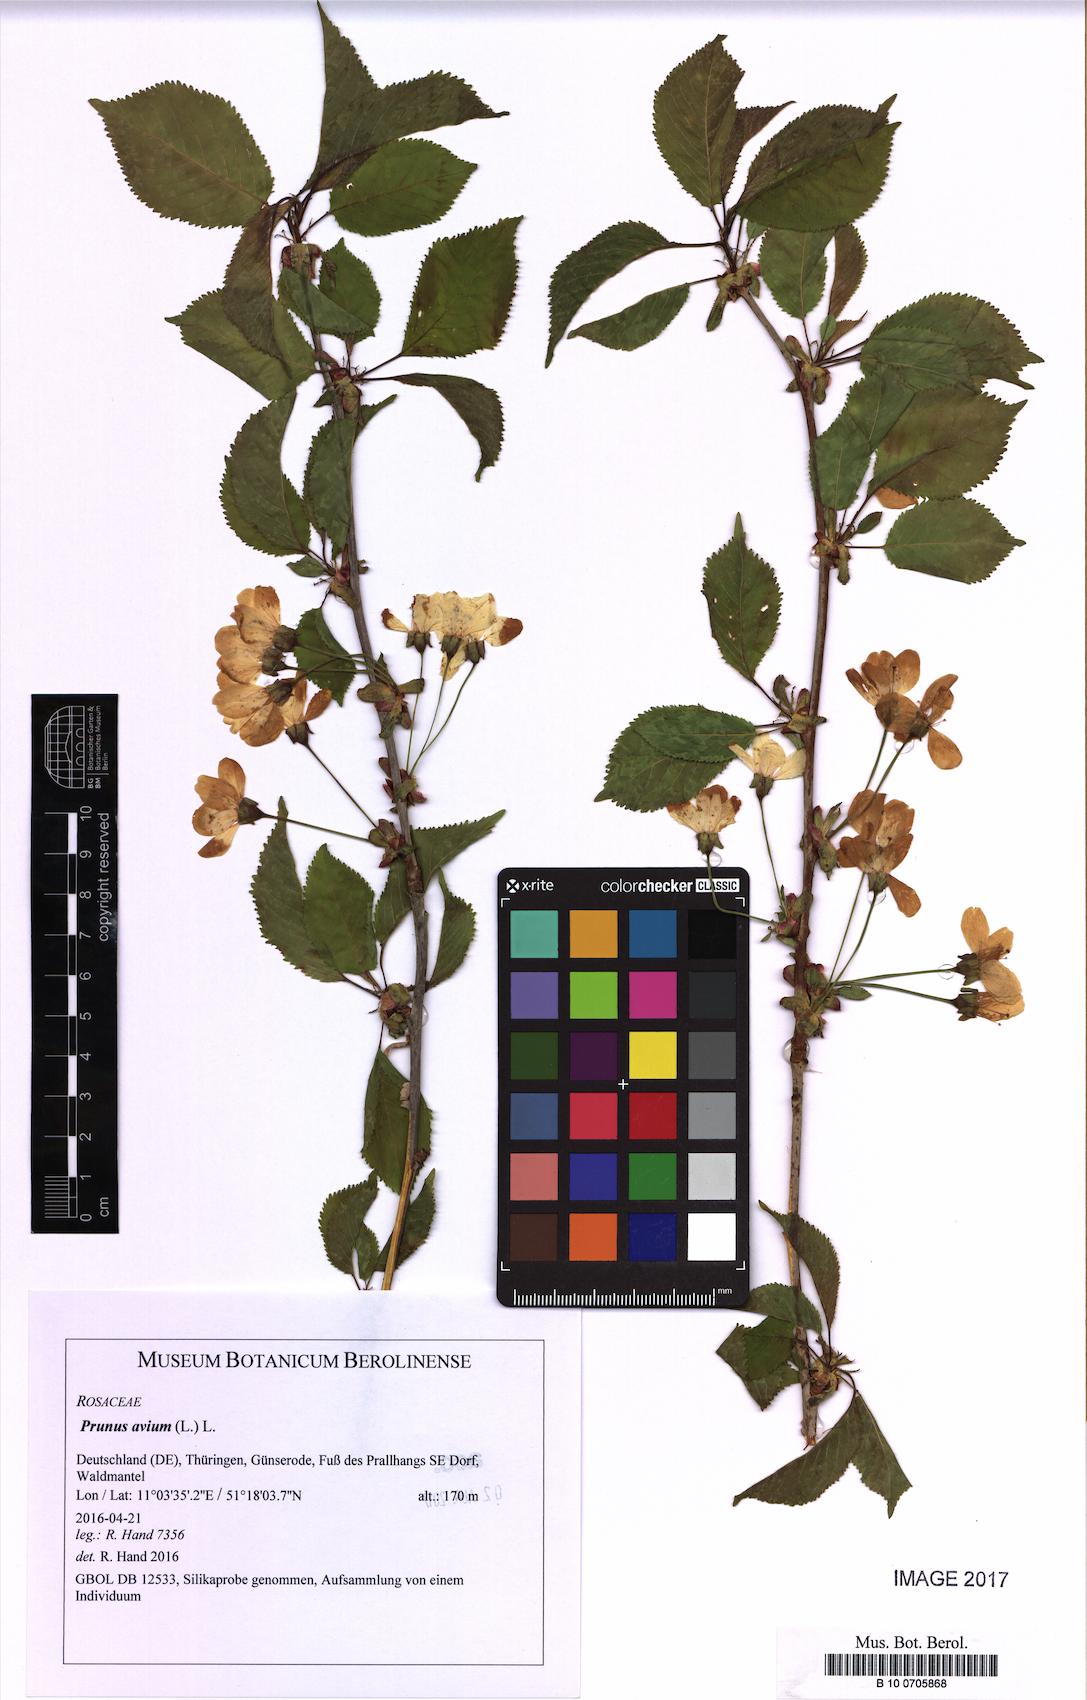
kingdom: Plantae
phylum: Tracheophyta
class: Magnoliopsida
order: Rosales
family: Rosaceae
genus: Prunus
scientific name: Prunus avium
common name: Sweet cherry
